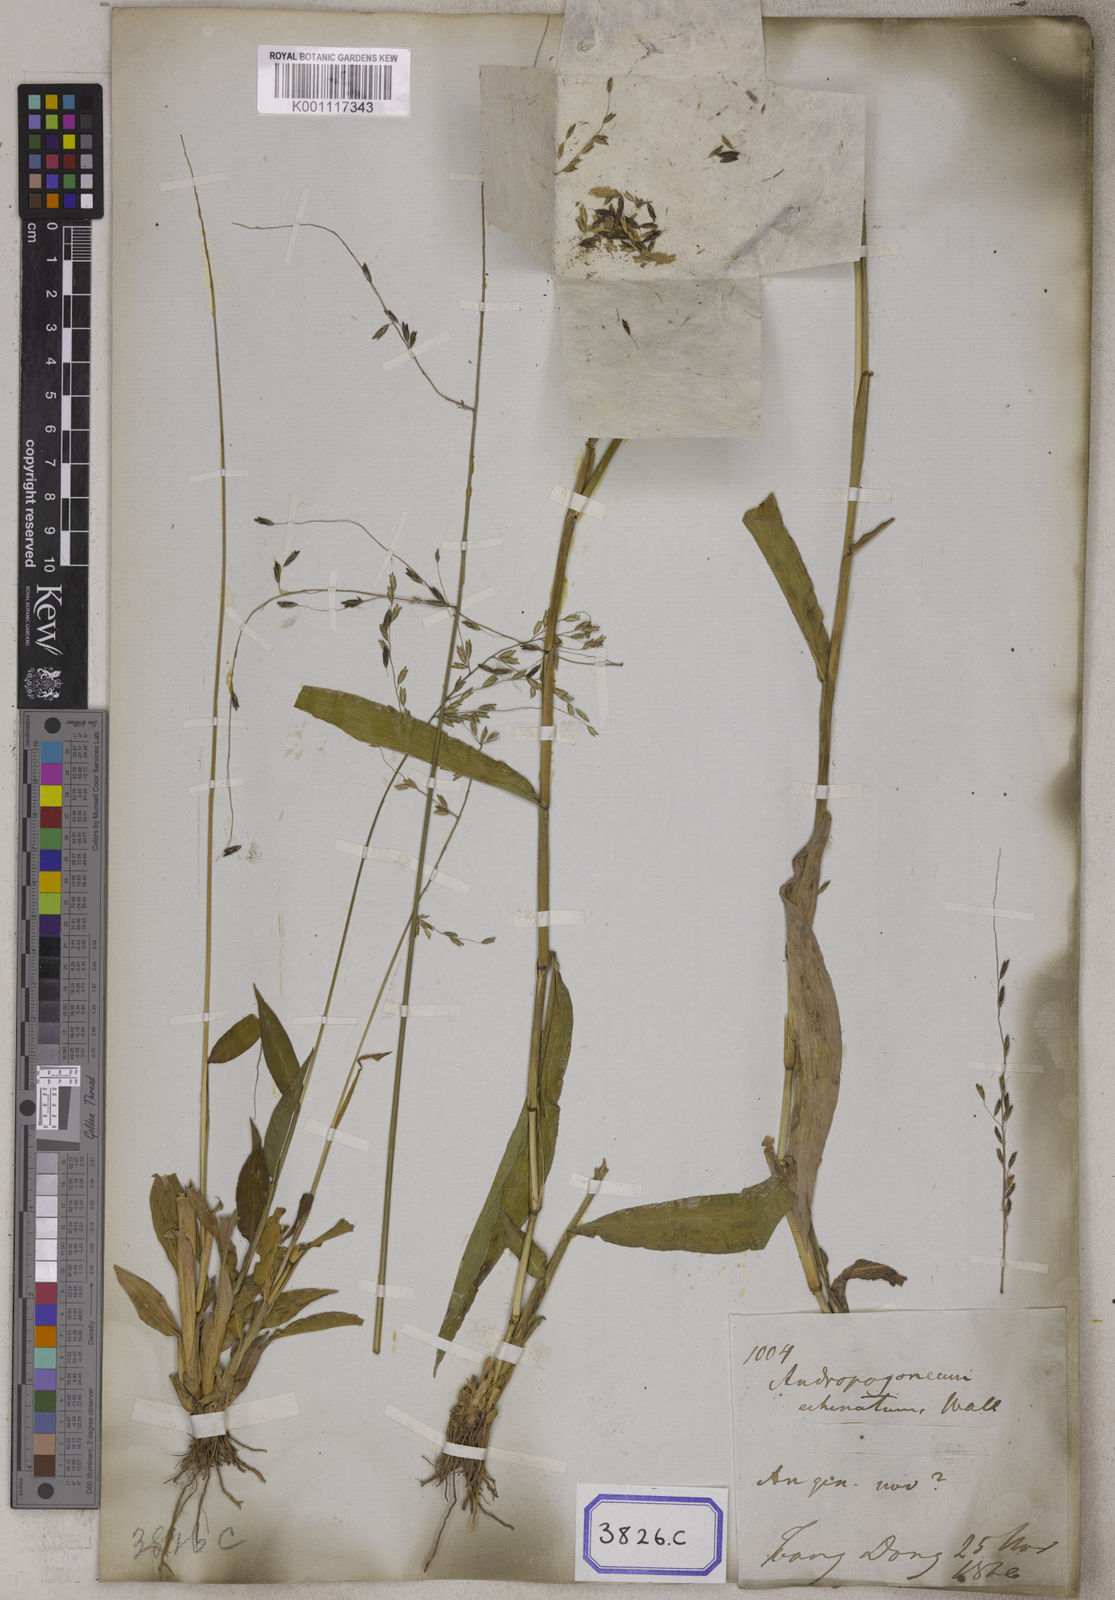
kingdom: Plantae
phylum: Tracheophyta
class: Liliopsida
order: Poales
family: Poaceae
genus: Centotheca
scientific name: Centotheca lappacea
